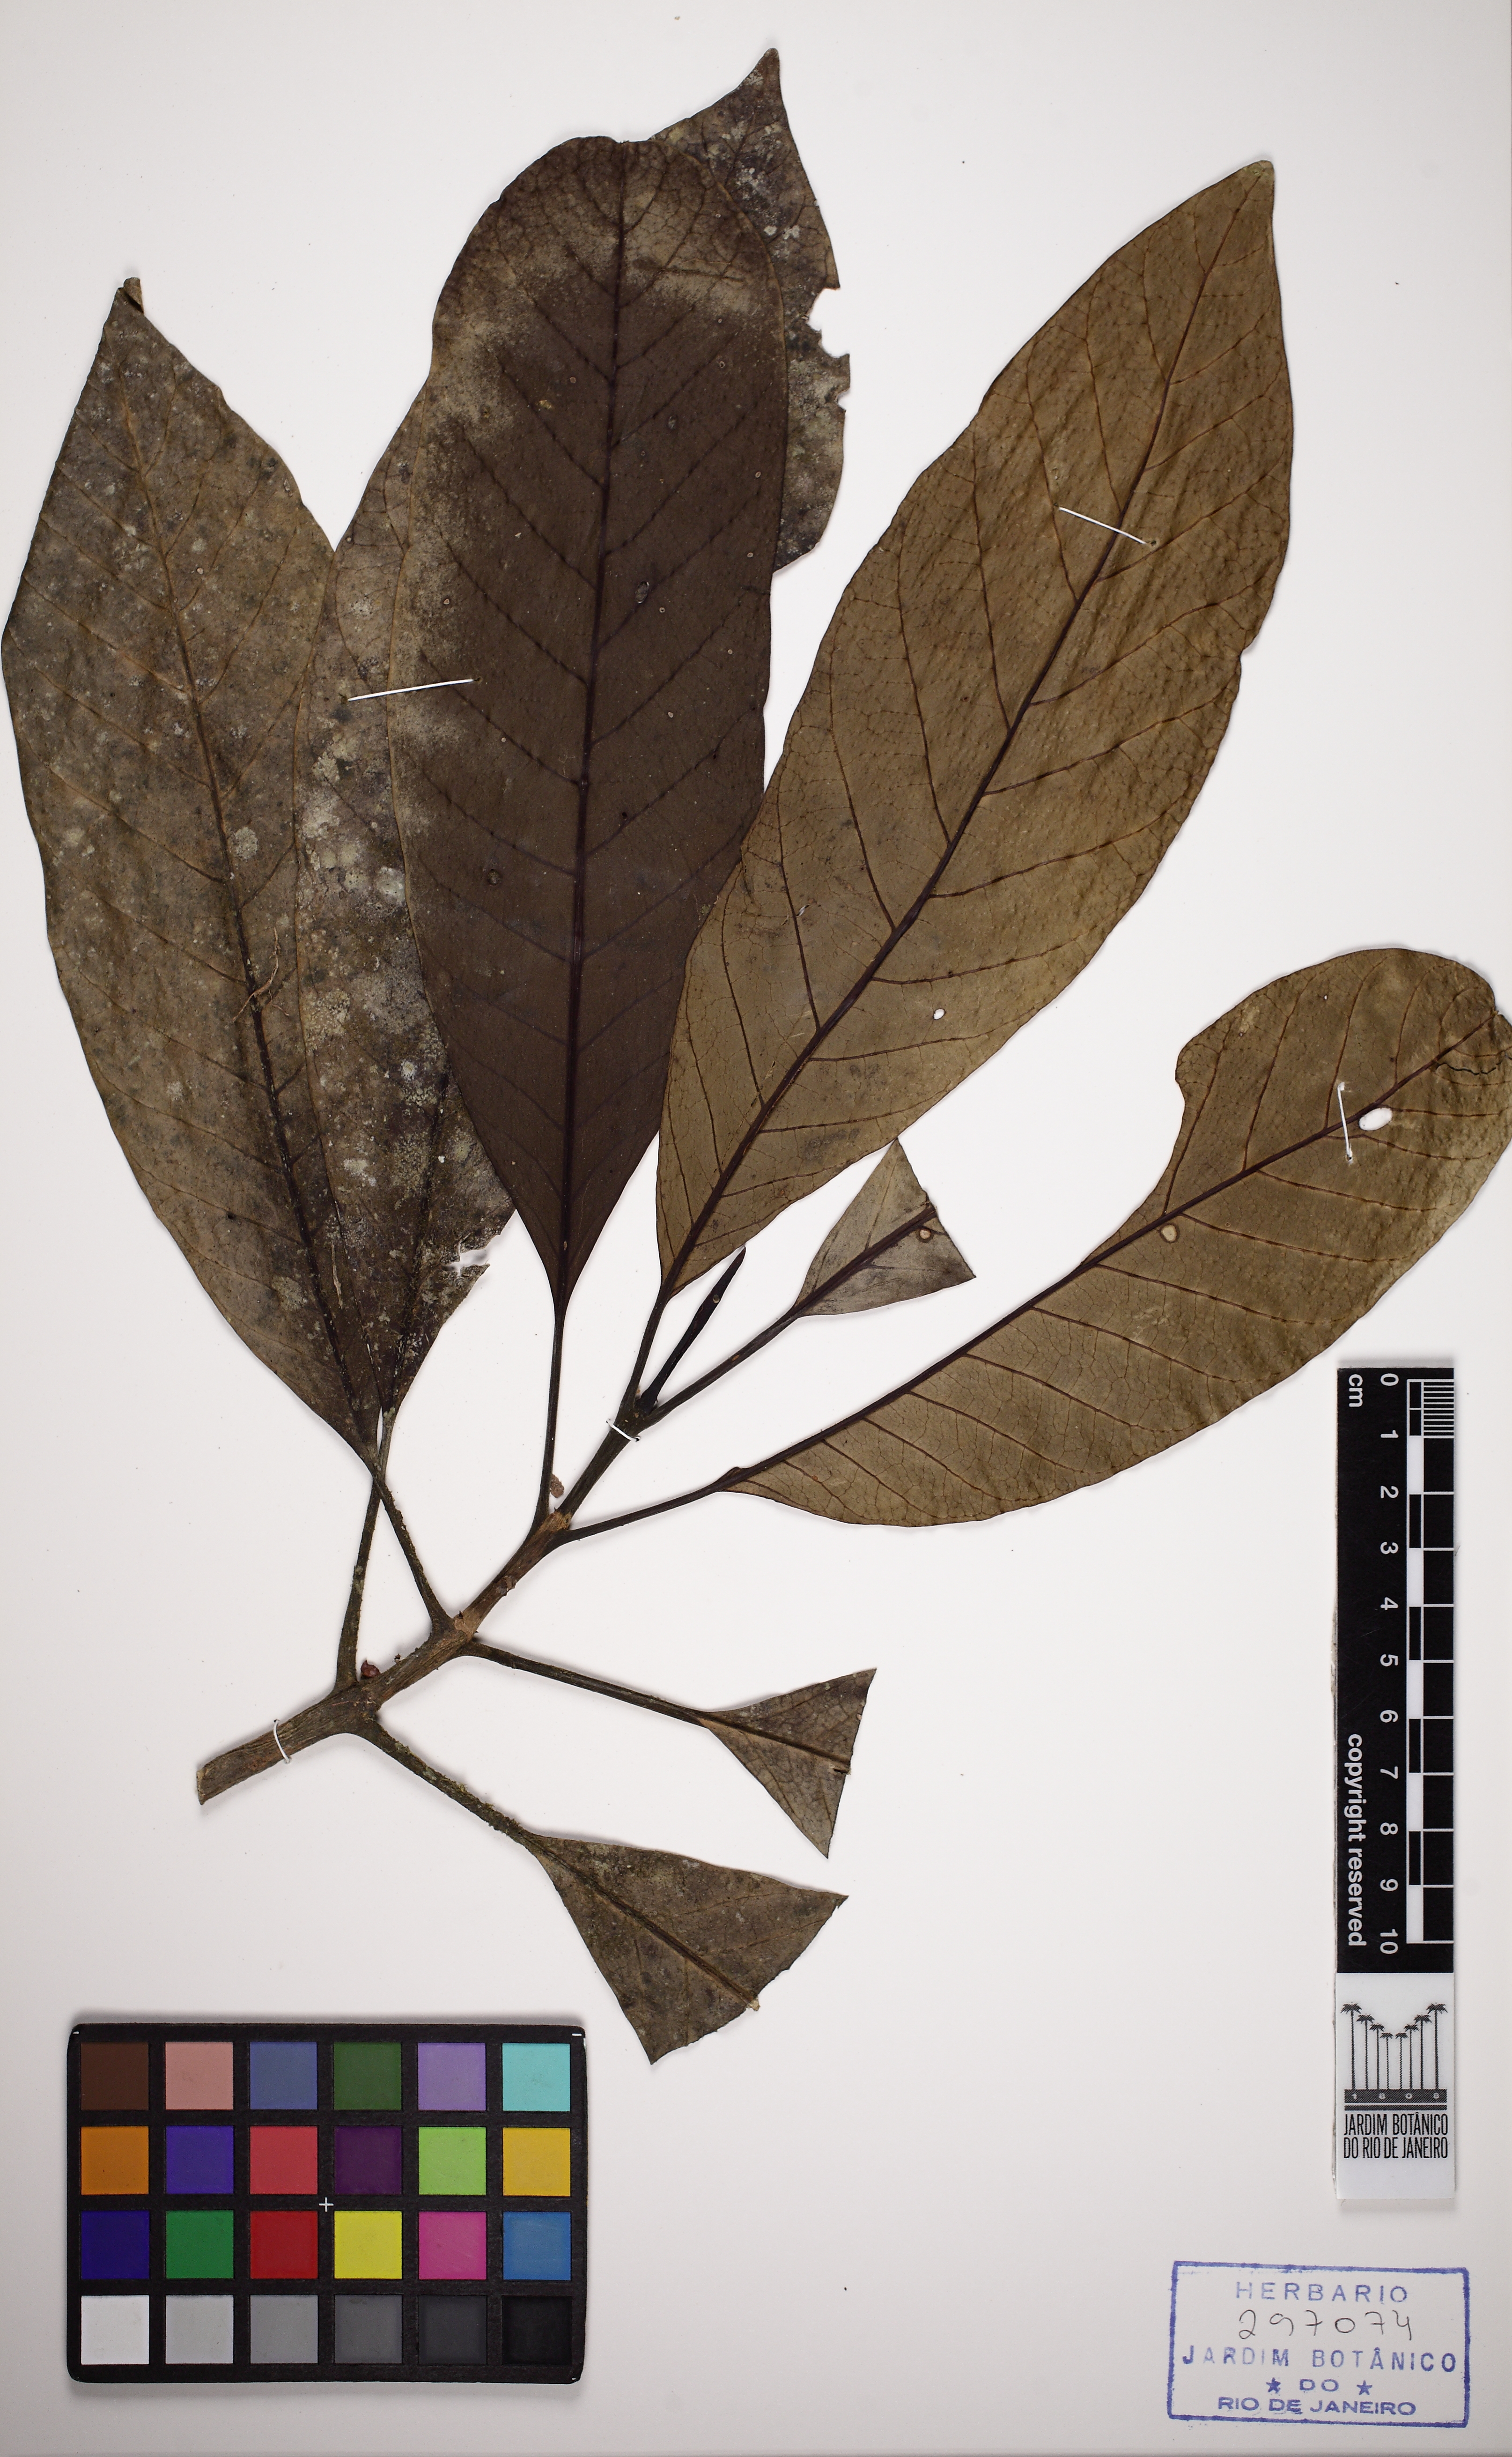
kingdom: Plantae
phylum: Tracheophyta
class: Magnoliopsida
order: Gentianales
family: Rubiaceae
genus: Rustia
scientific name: Rustia formosa
